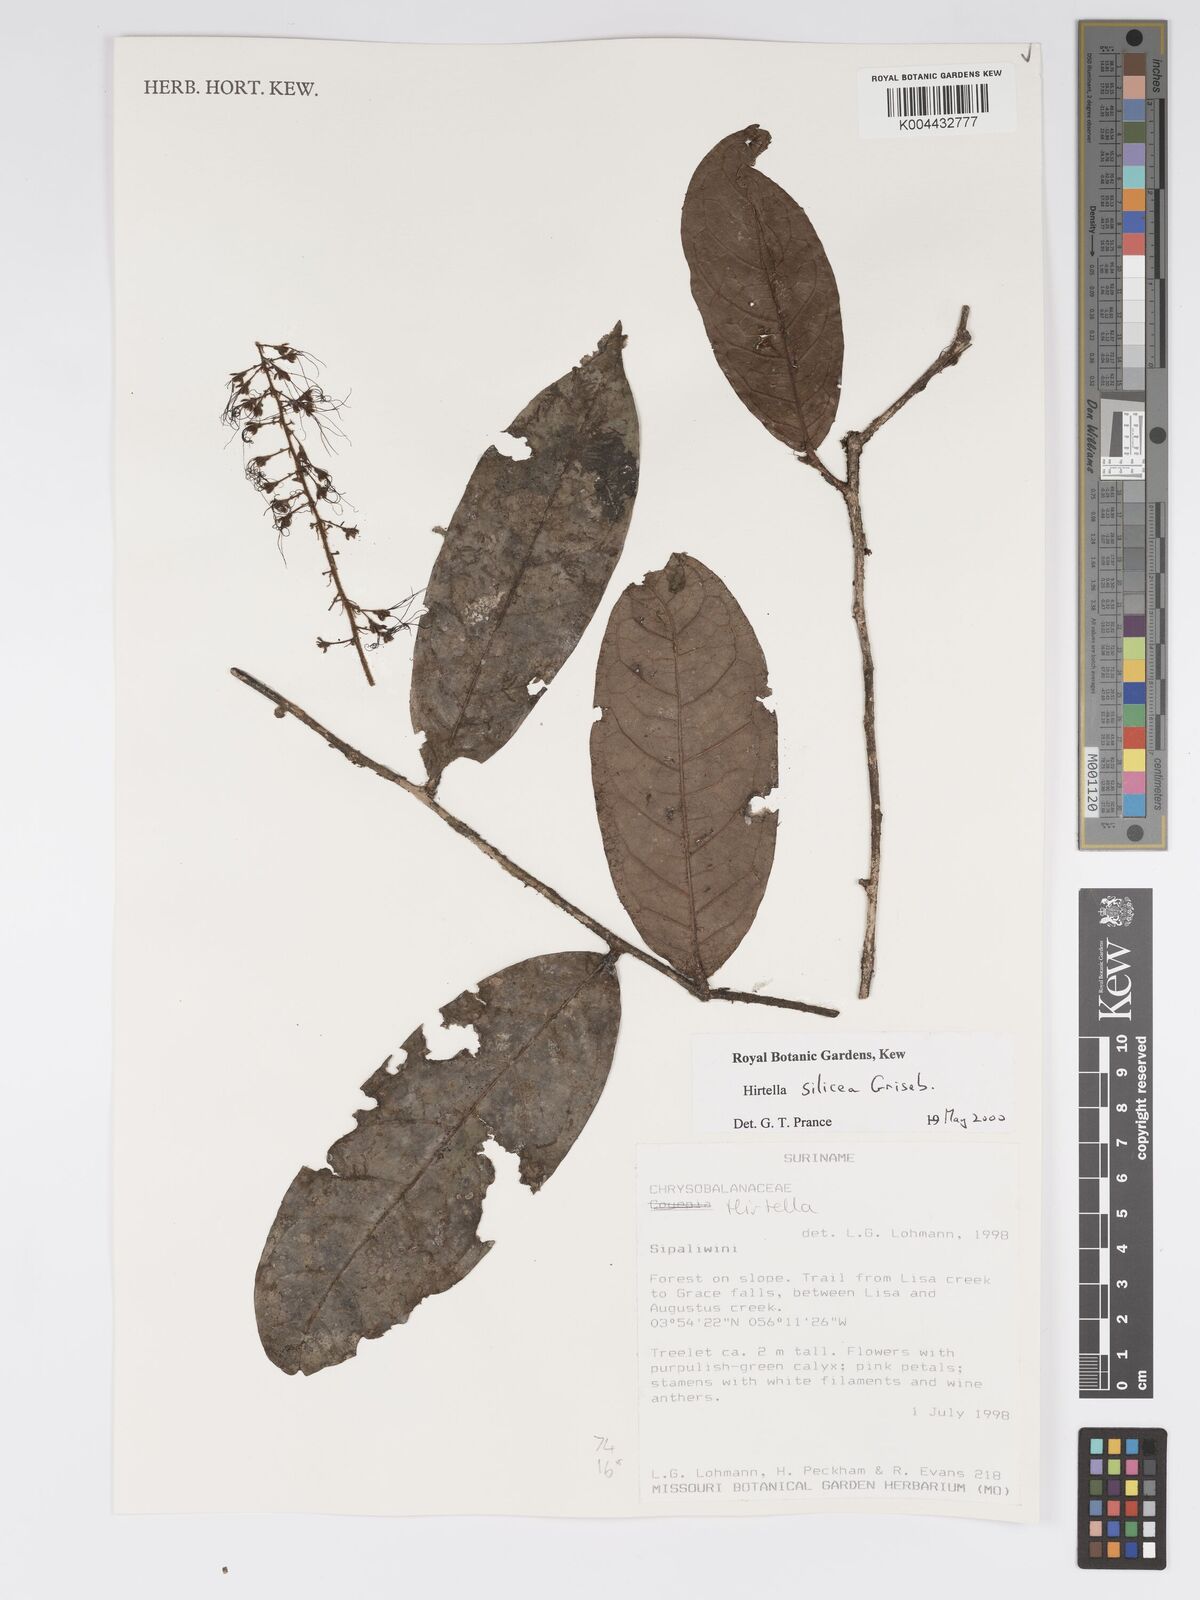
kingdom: Plantae
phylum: Tracheophyta
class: Magnoliopsida
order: Malpighiales
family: Chrysobalanaceae
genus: Hirtella
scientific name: Hirtella silicea
